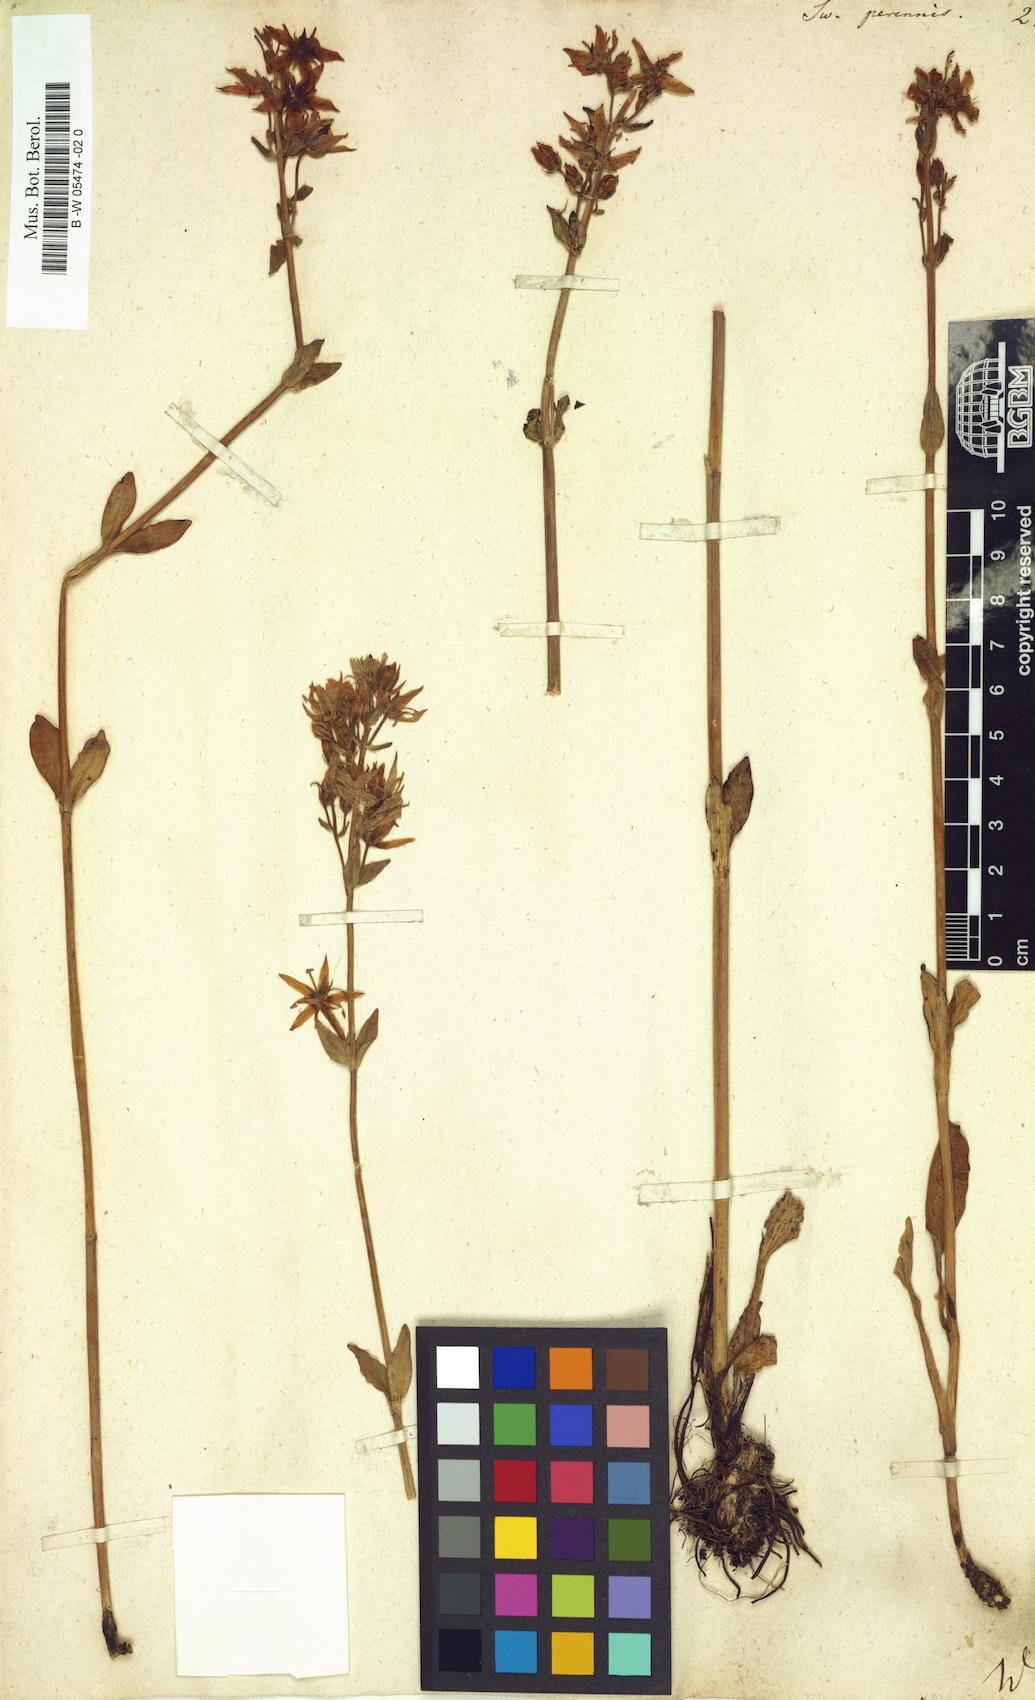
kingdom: Plantae
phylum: Tracheophyta
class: Magnoliopsida
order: Gentianales
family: Gentianaceae
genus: Swertia
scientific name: Swertia perennis
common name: Alpine bog swertia
